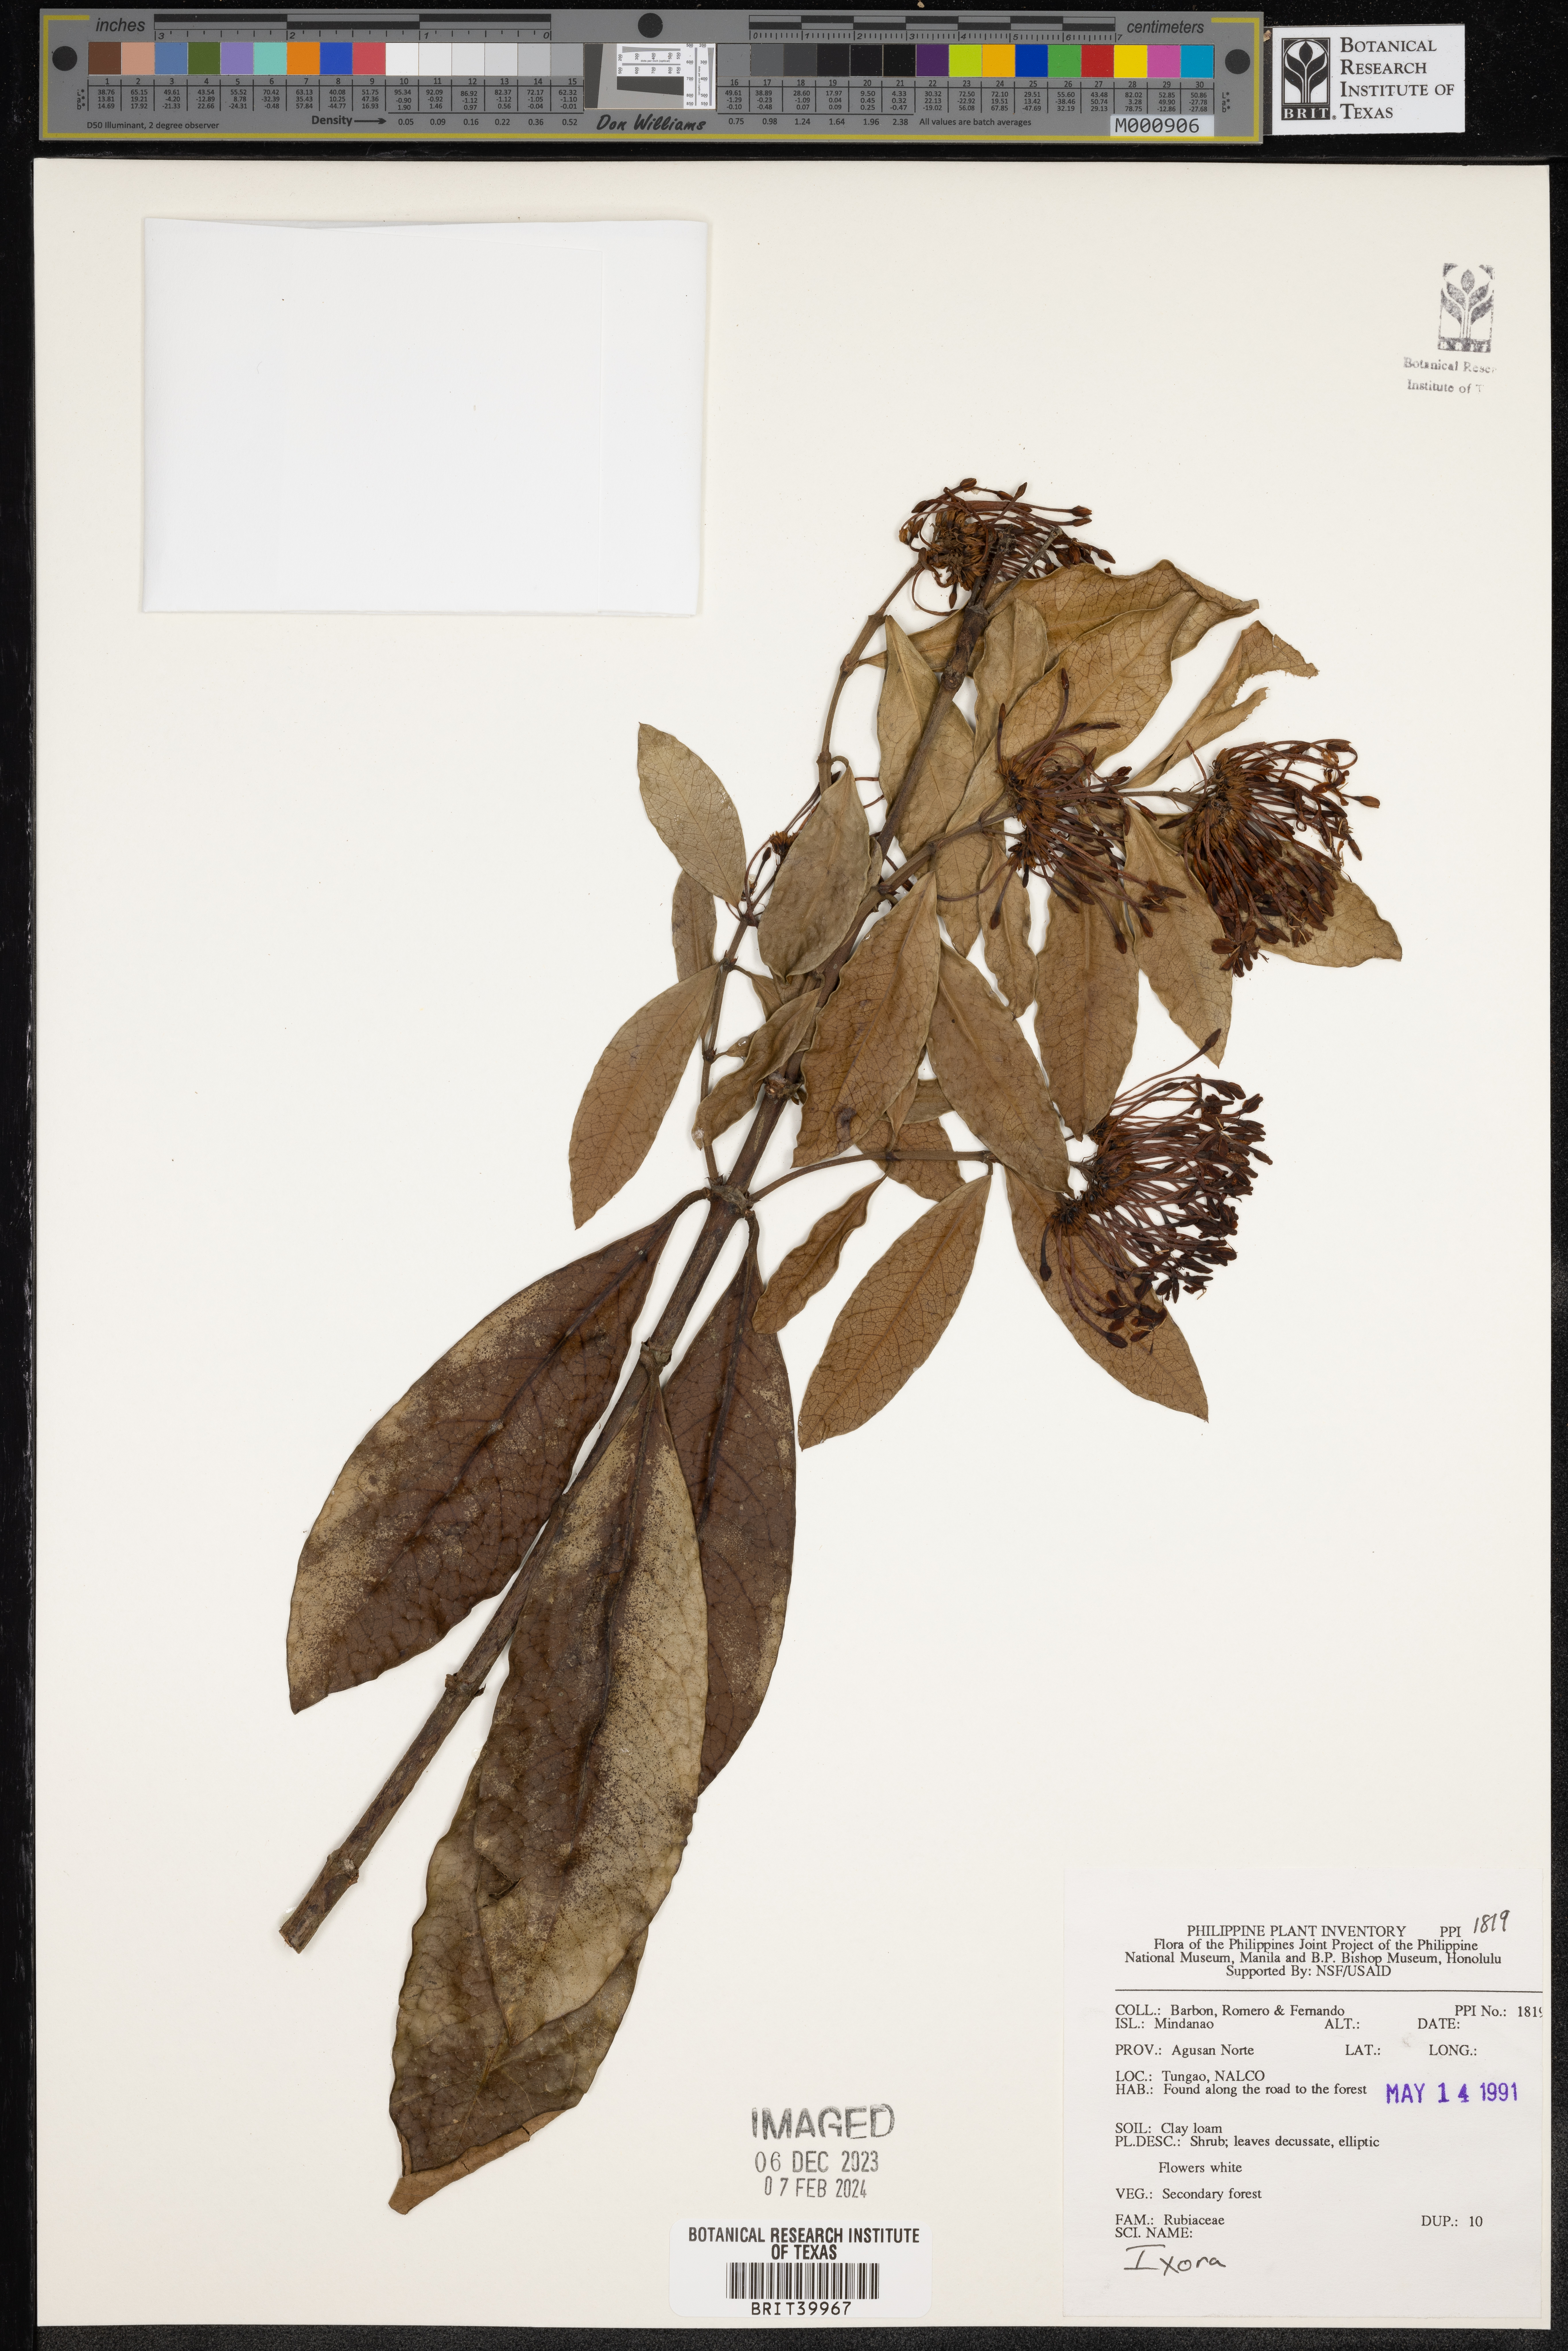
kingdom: Plantae
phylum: Tracheophyta
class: Magnoliopsida
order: Gentianales
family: Rubiaceae
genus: Ixora
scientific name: Ixora
